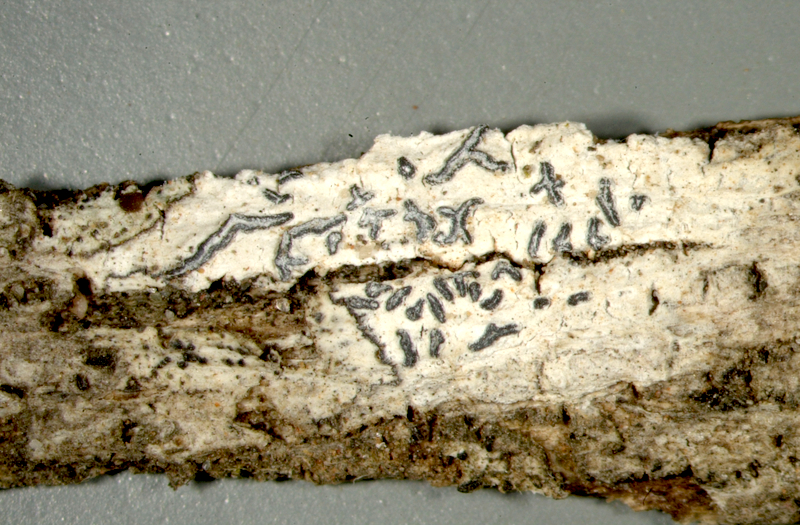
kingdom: Fungi
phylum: Ascomycota
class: Lecanoromycetes
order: Lecanorales
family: Lecanoraceae
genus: Lecanora
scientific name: Lecanora
